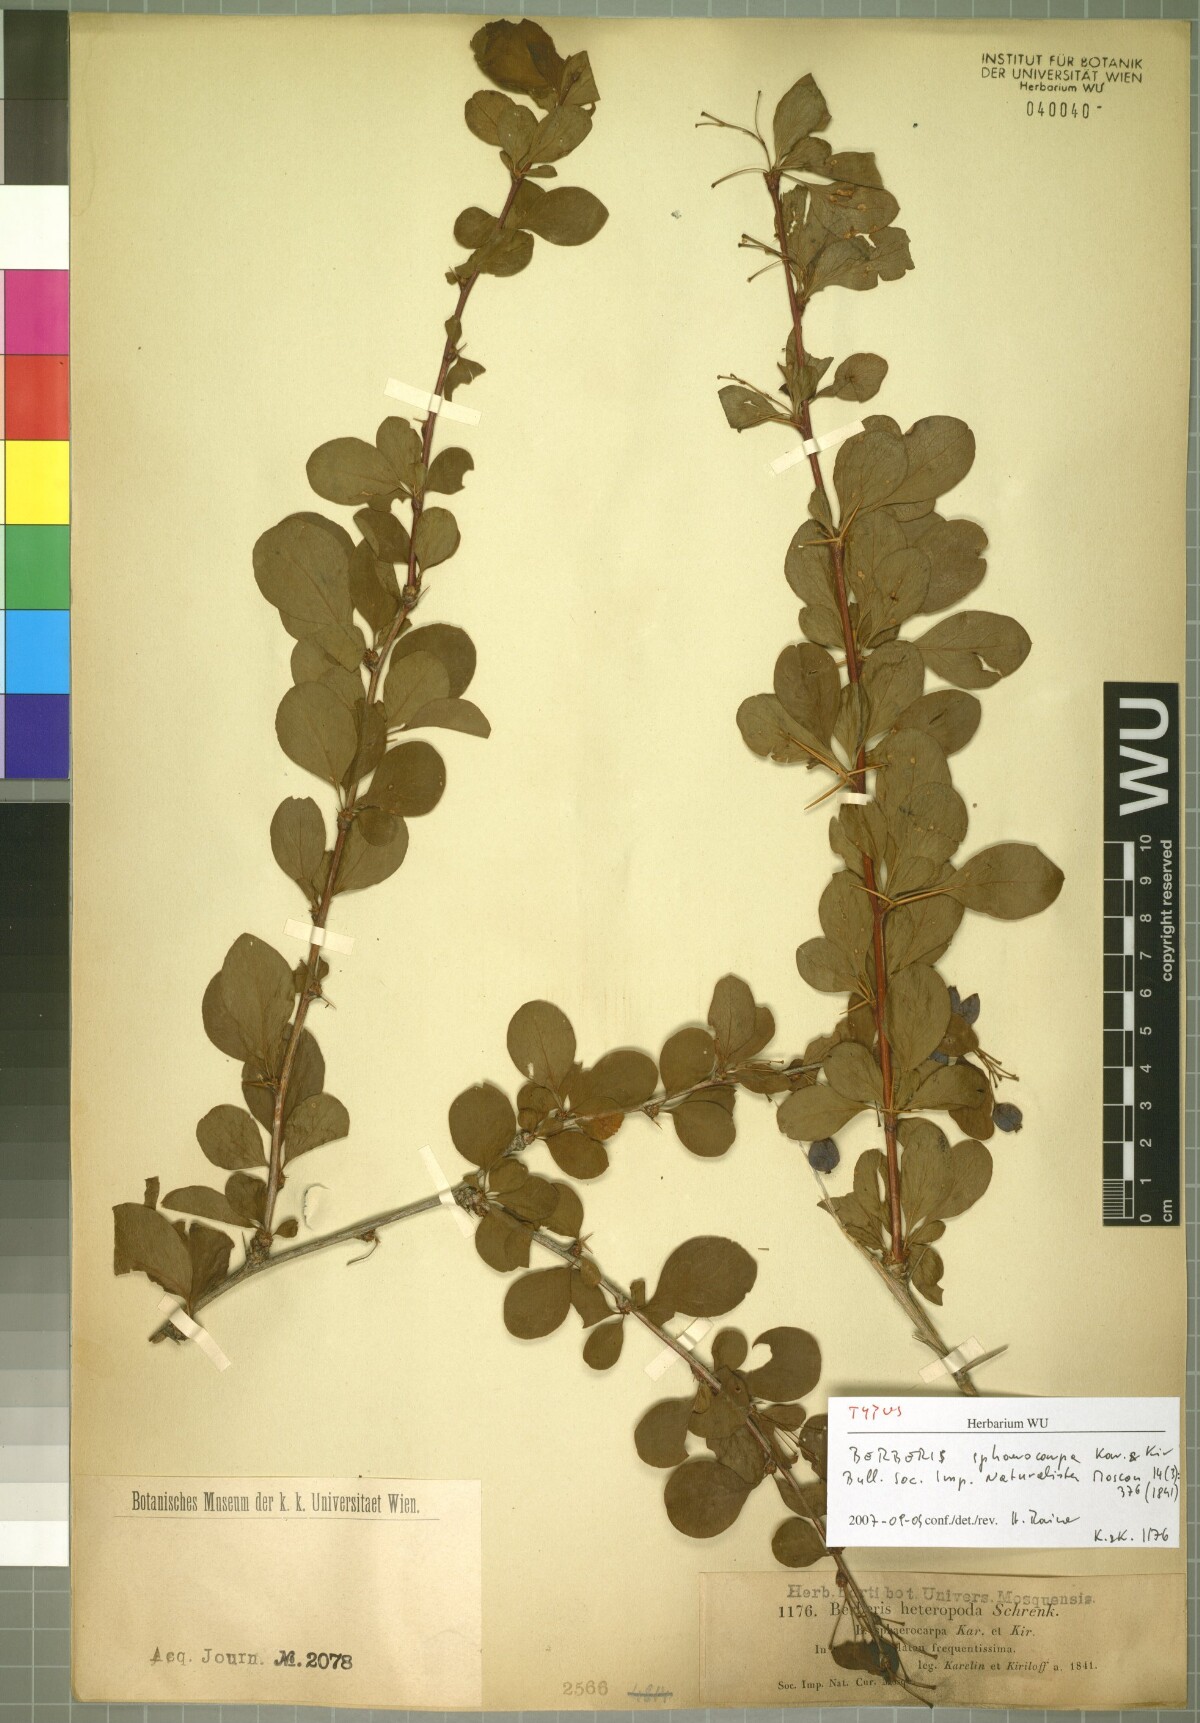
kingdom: Plantae
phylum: Tracheophyta
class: Magnoliopsida
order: Ranunculales
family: Berberidaceae
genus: Berberis
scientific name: Berberis heteropoda
